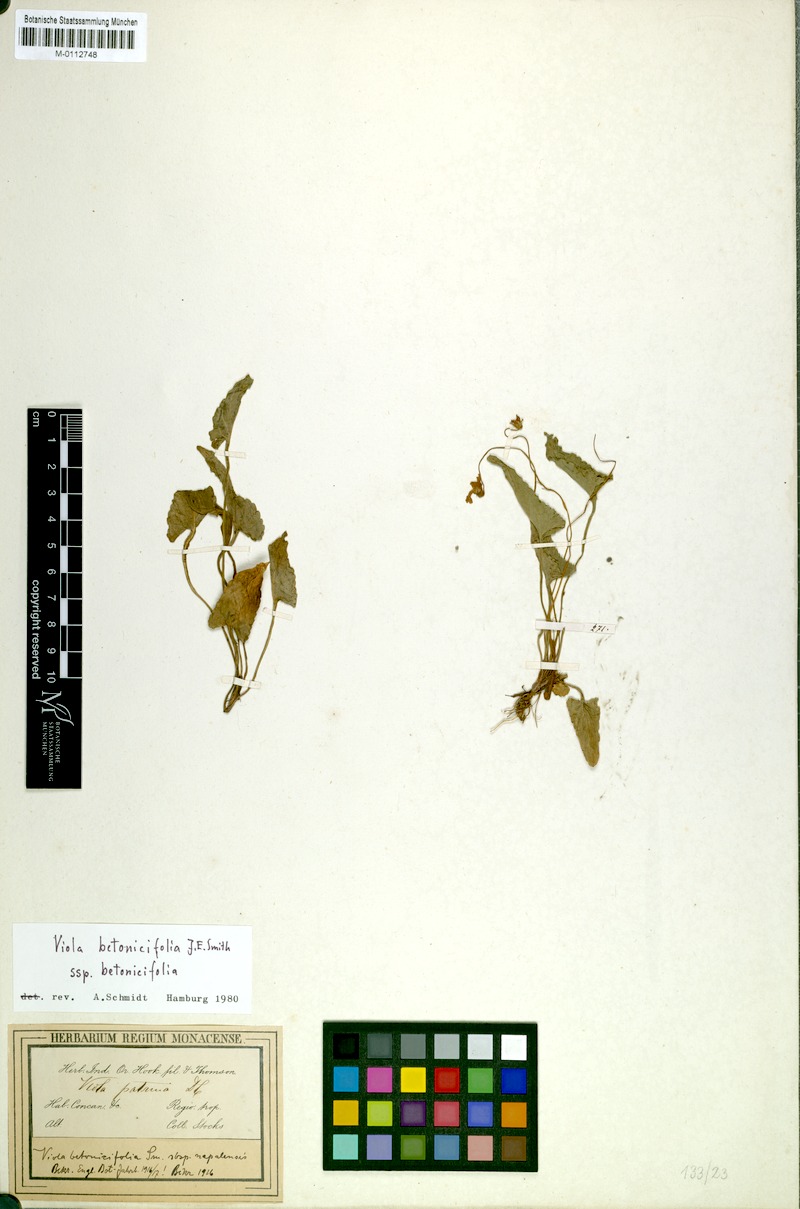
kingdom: Plantae
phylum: Tracheophyta
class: Magnoliopsida
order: Malpighiales
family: Violaceae
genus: Viola
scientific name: Viola betonicifolia
